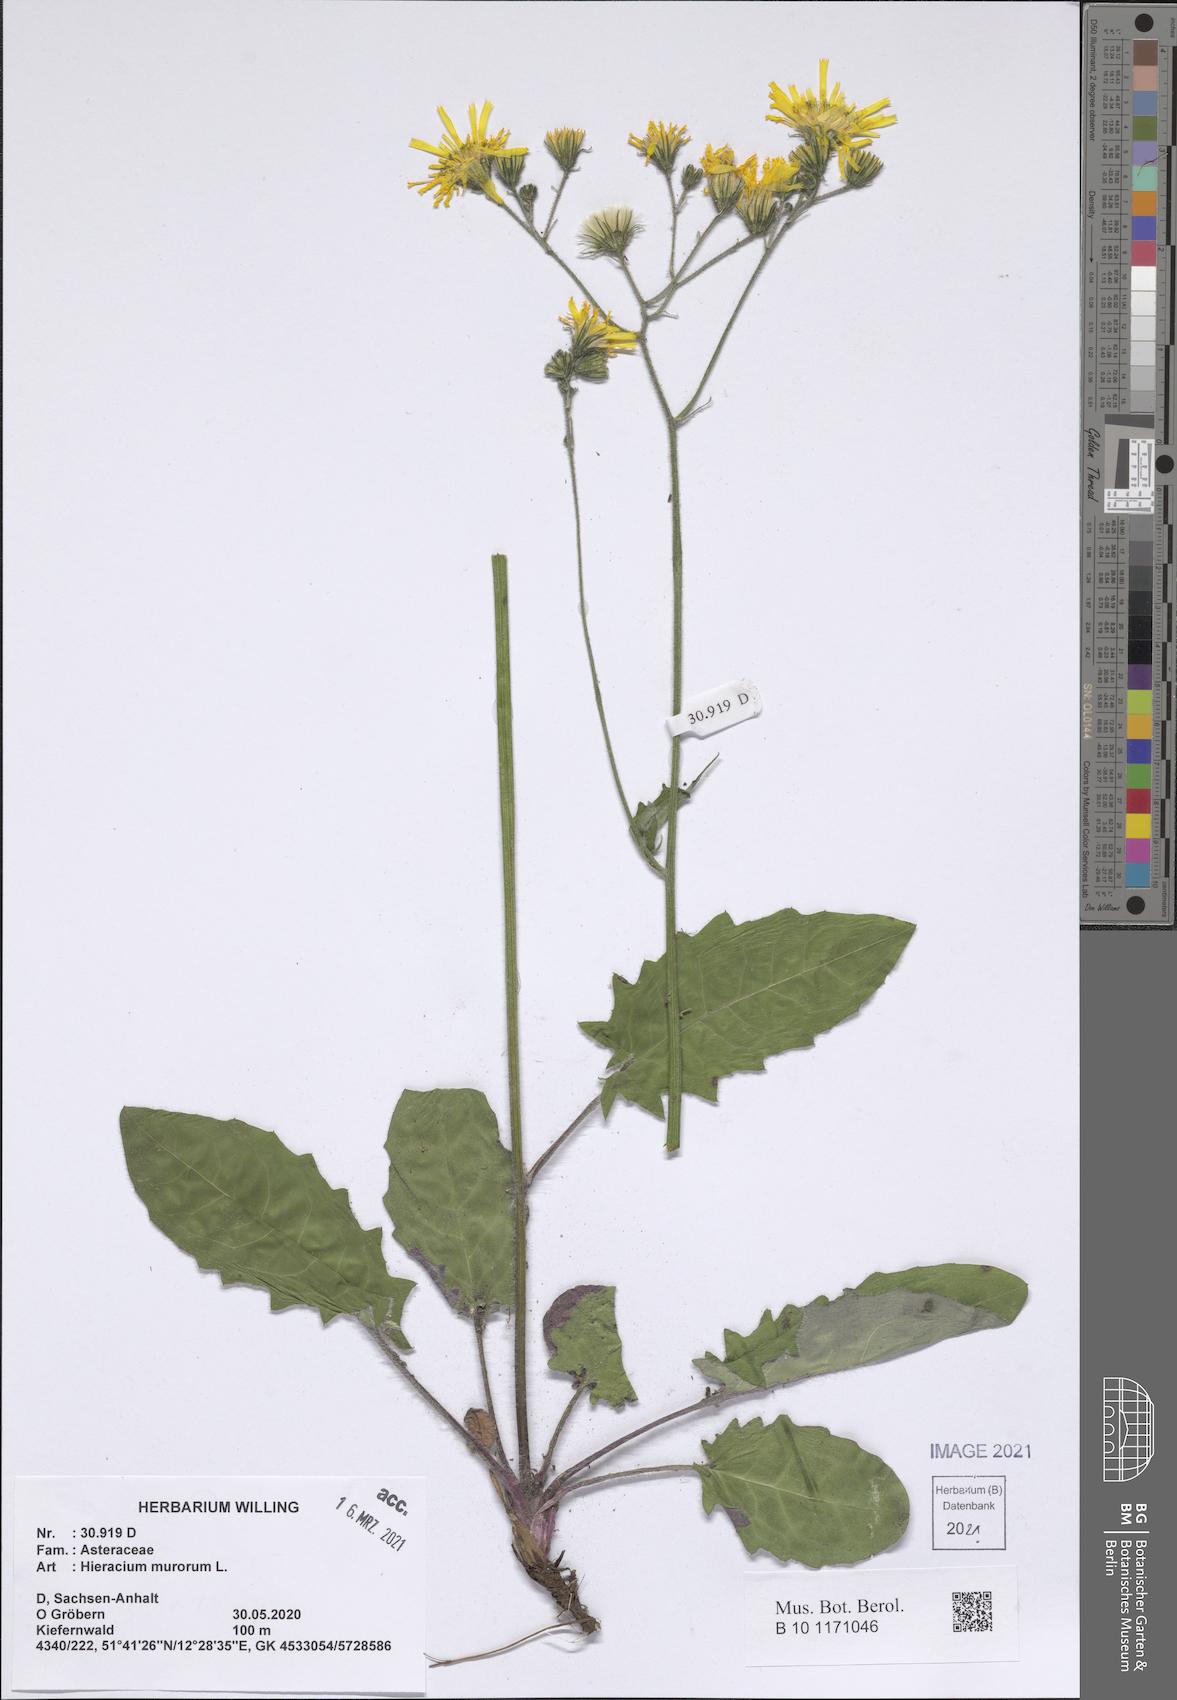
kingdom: Plantae
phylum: Tracheophyta
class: Magnoliopsida
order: Asterales
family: Asteraceae
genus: Hieracium
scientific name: Hieracium murorum
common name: Wall hawkweed
